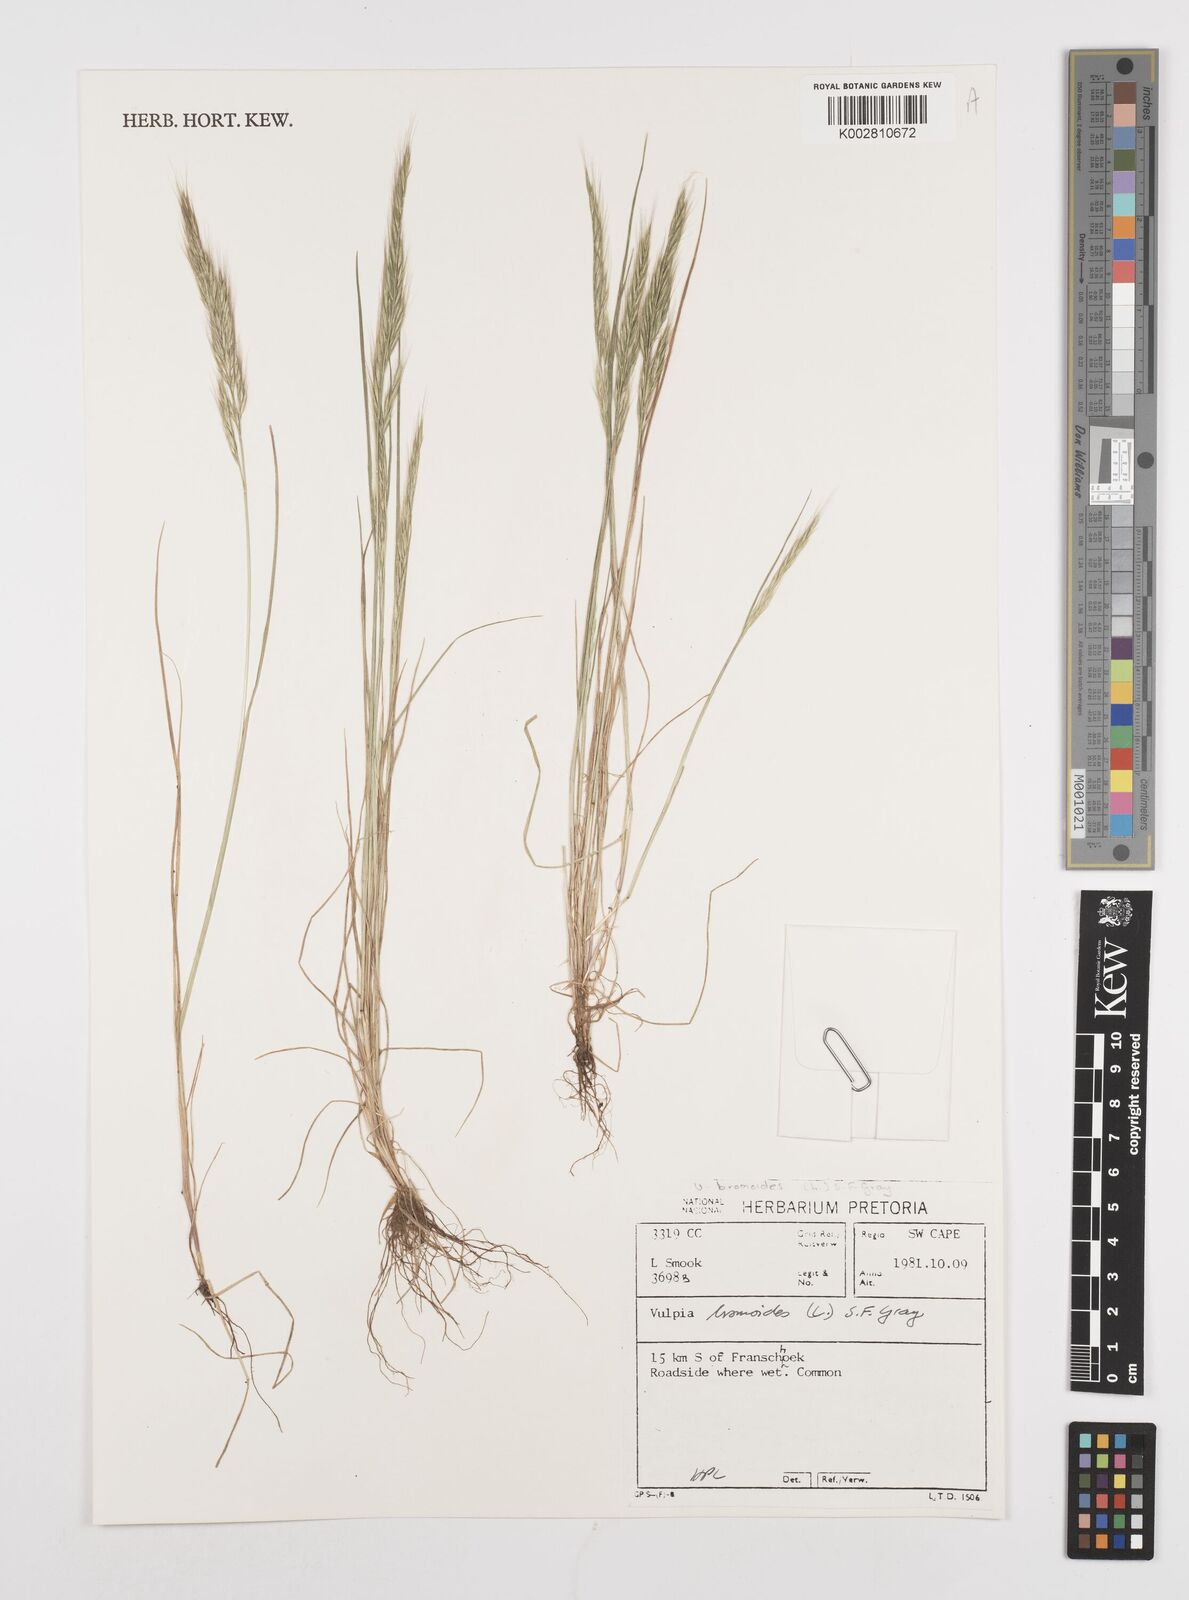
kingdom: Plantae
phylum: Tracheophyta
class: Liliopsida
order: Poales
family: Poaceae
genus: Festuca
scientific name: Festuca bromoides
